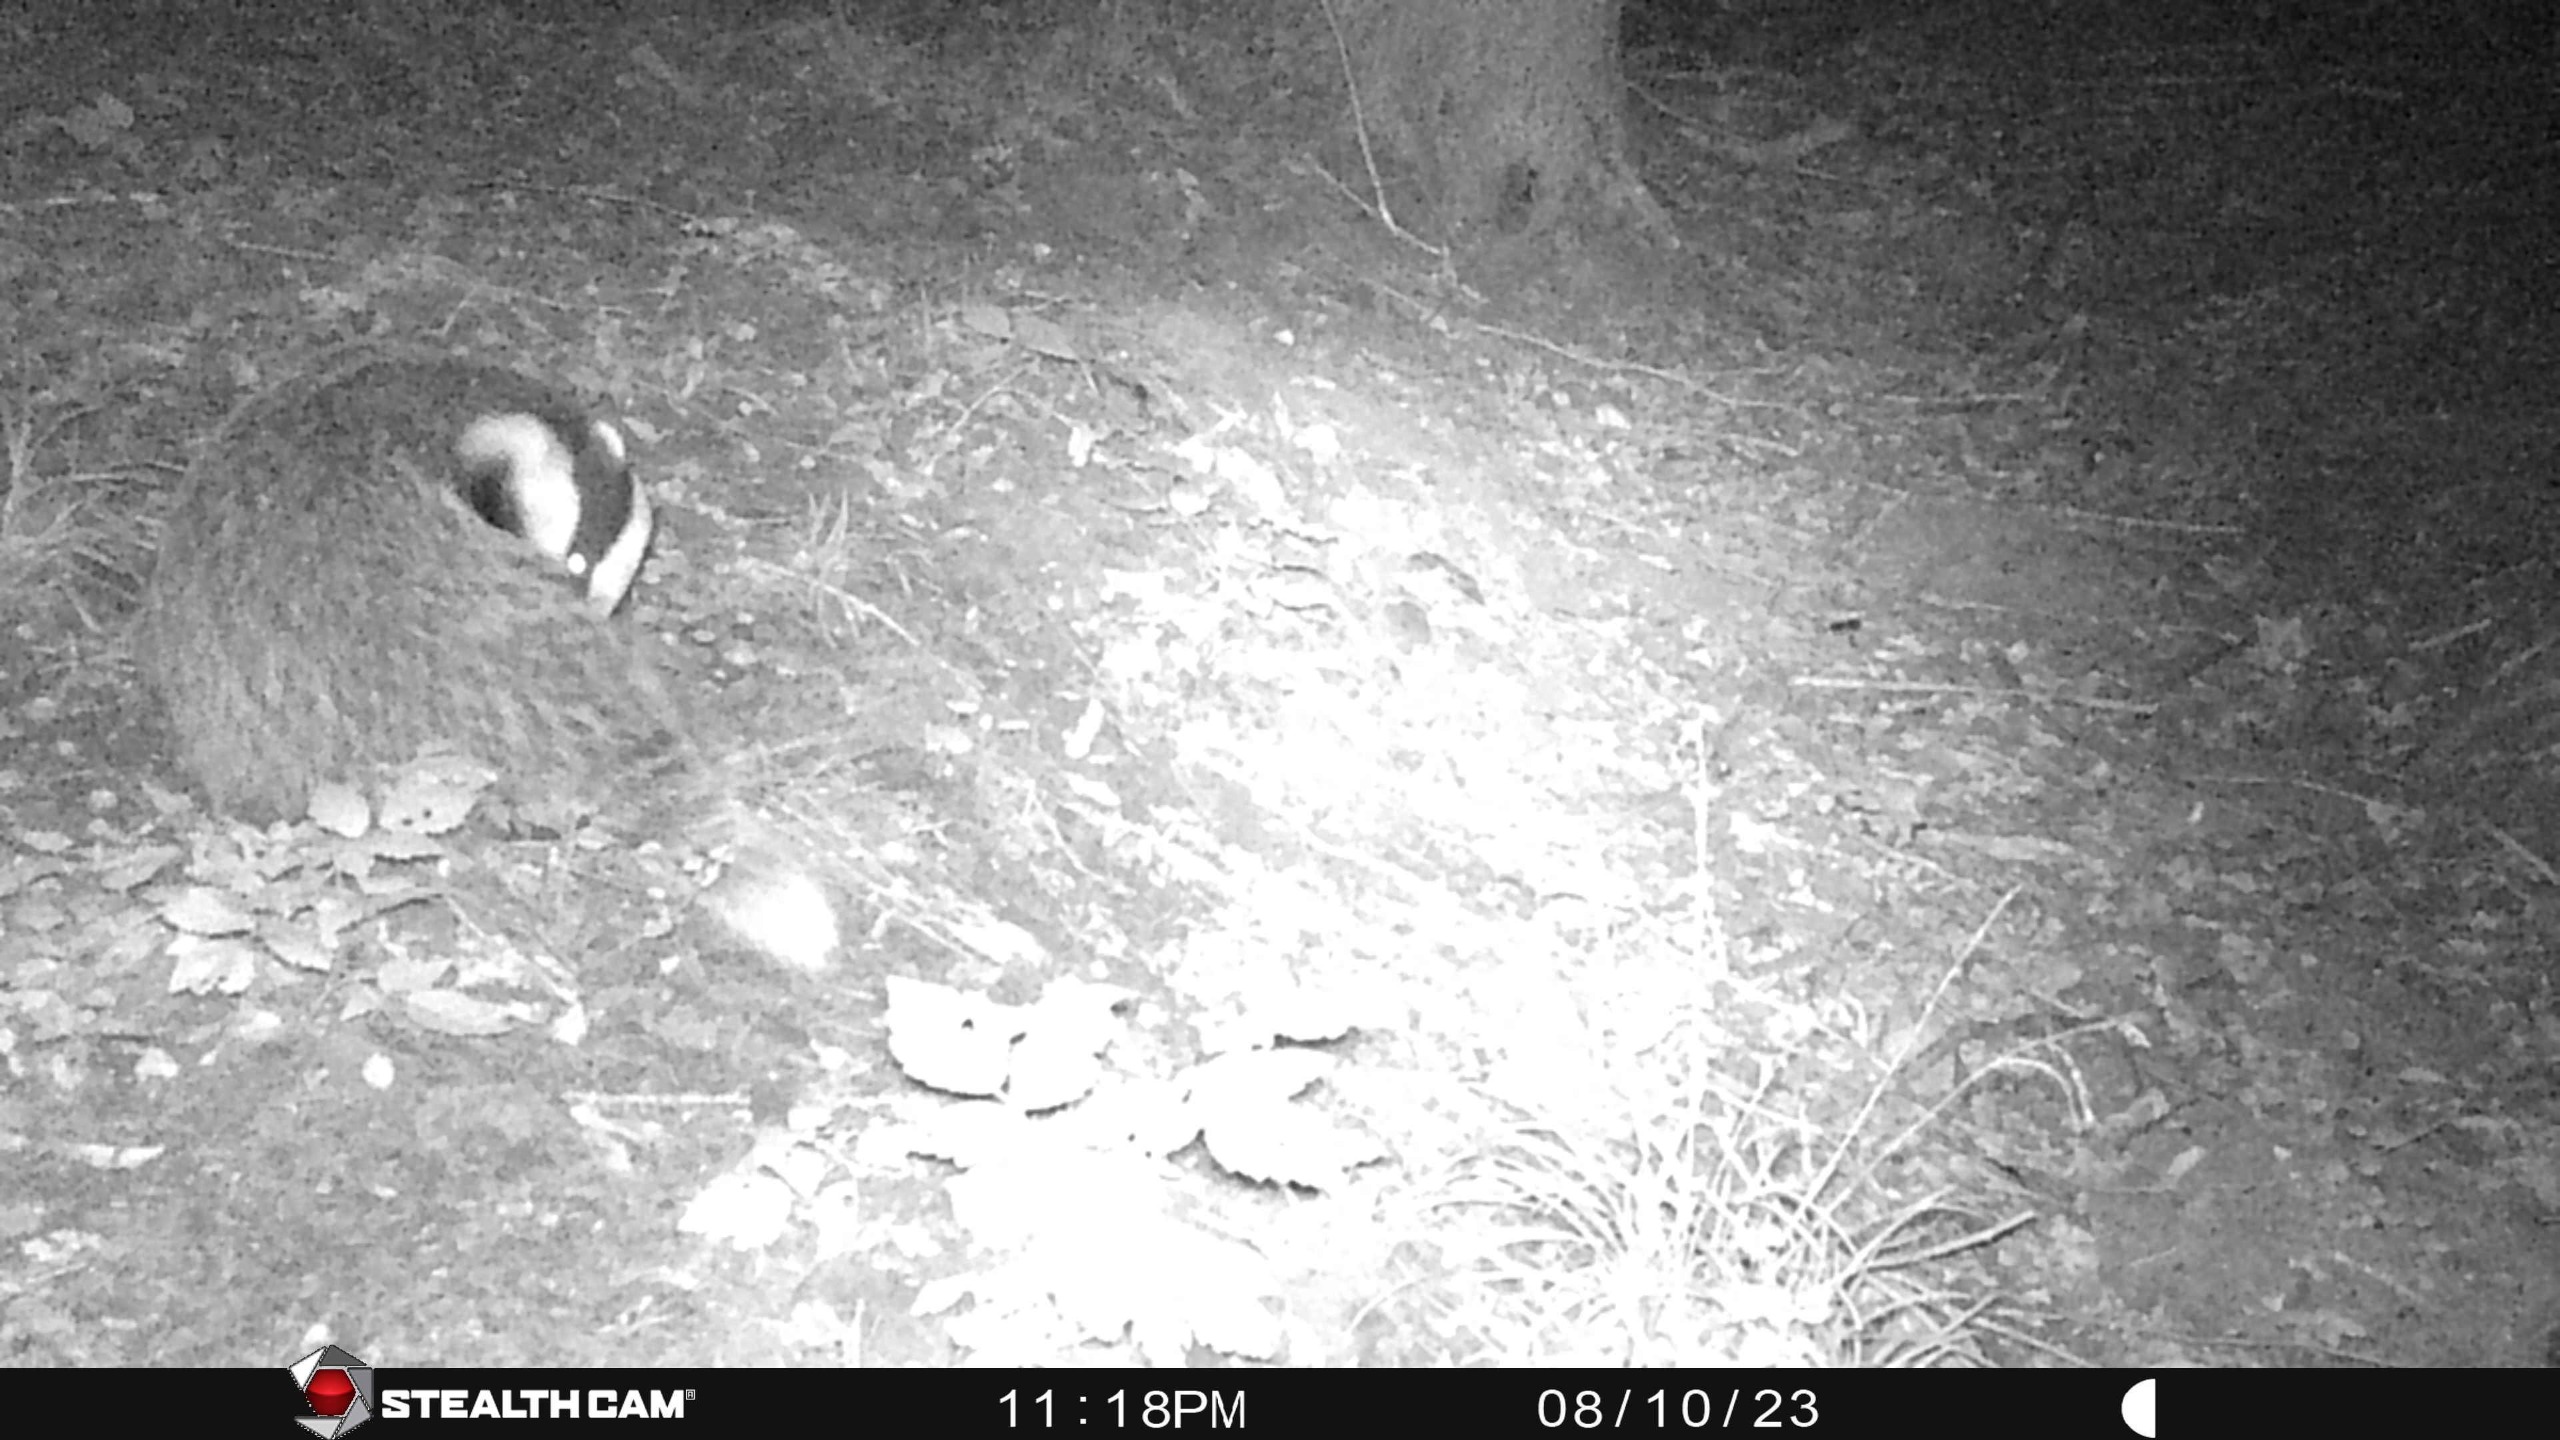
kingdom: Animalia
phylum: Chordata
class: Mammalia
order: Carnivora
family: Mustelidae
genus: Meles
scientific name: Meles meles
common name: Grævling
